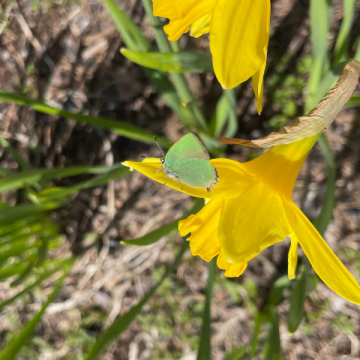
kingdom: Animalia
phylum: Arthropoda
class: Insecta
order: Lepidoptera
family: Lycaenidae
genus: Callophrys
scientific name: Callophrys rubi
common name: Green Hairstreak
